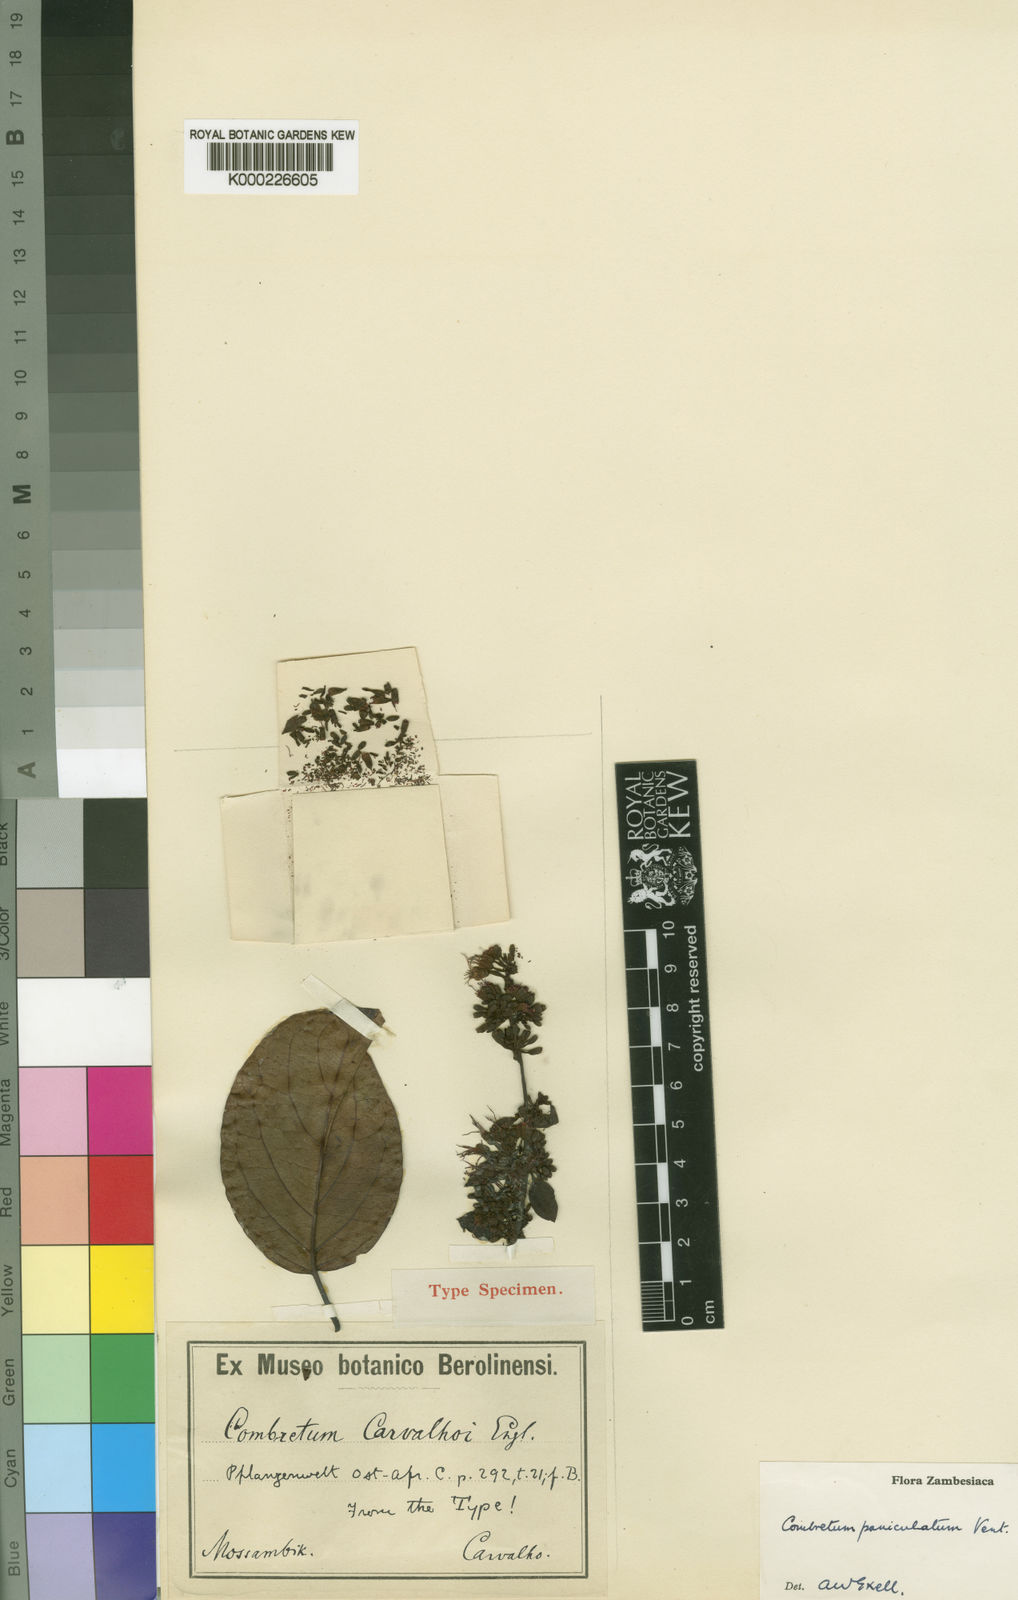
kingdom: Plantae
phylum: Tracheophyta
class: Magnoliopsida
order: Myrtales
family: Combretaceae
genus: Combretum
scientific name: Combretum paniculatum
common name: Fire vine
